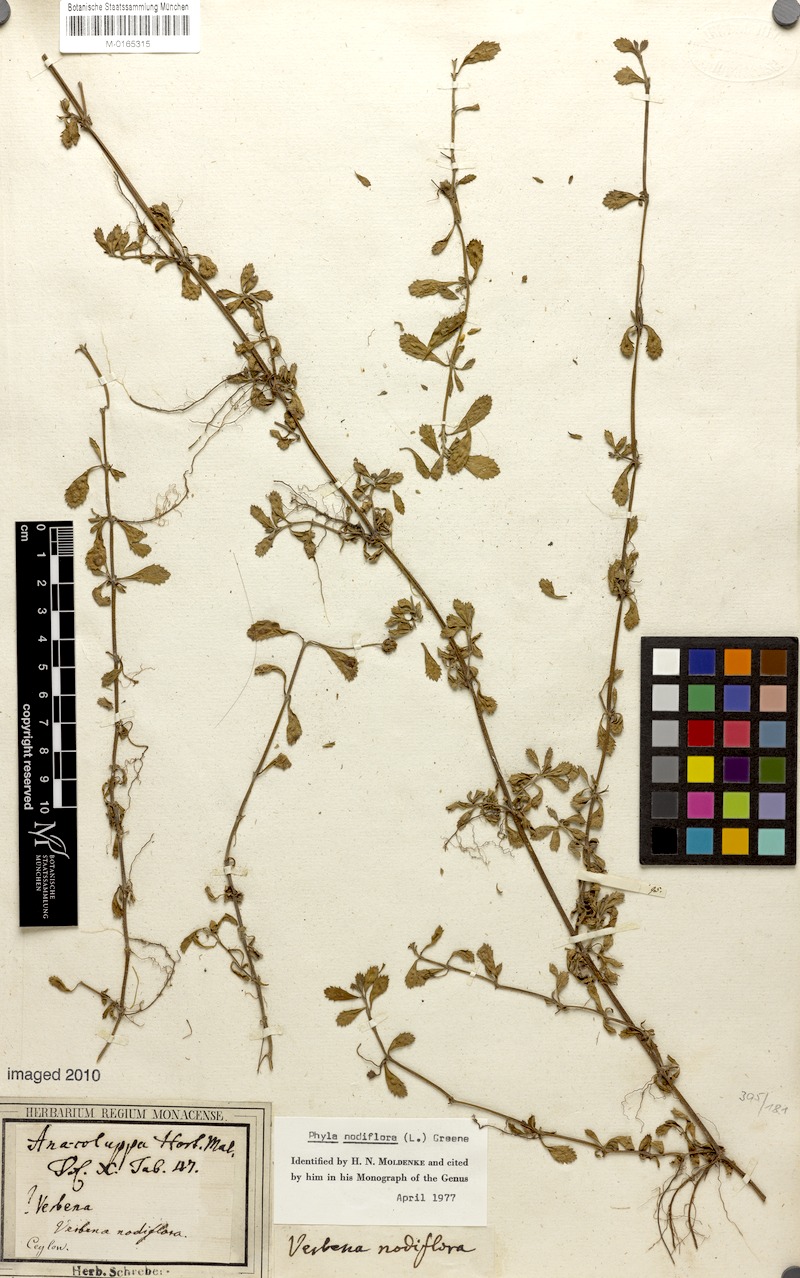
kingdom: Plantae
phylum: Tracheophyta
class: Magnoliopsida
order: Lamiales
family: Verbenaceae
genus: Phyla
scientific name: Phyla nodiflora
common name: Frogfruit
